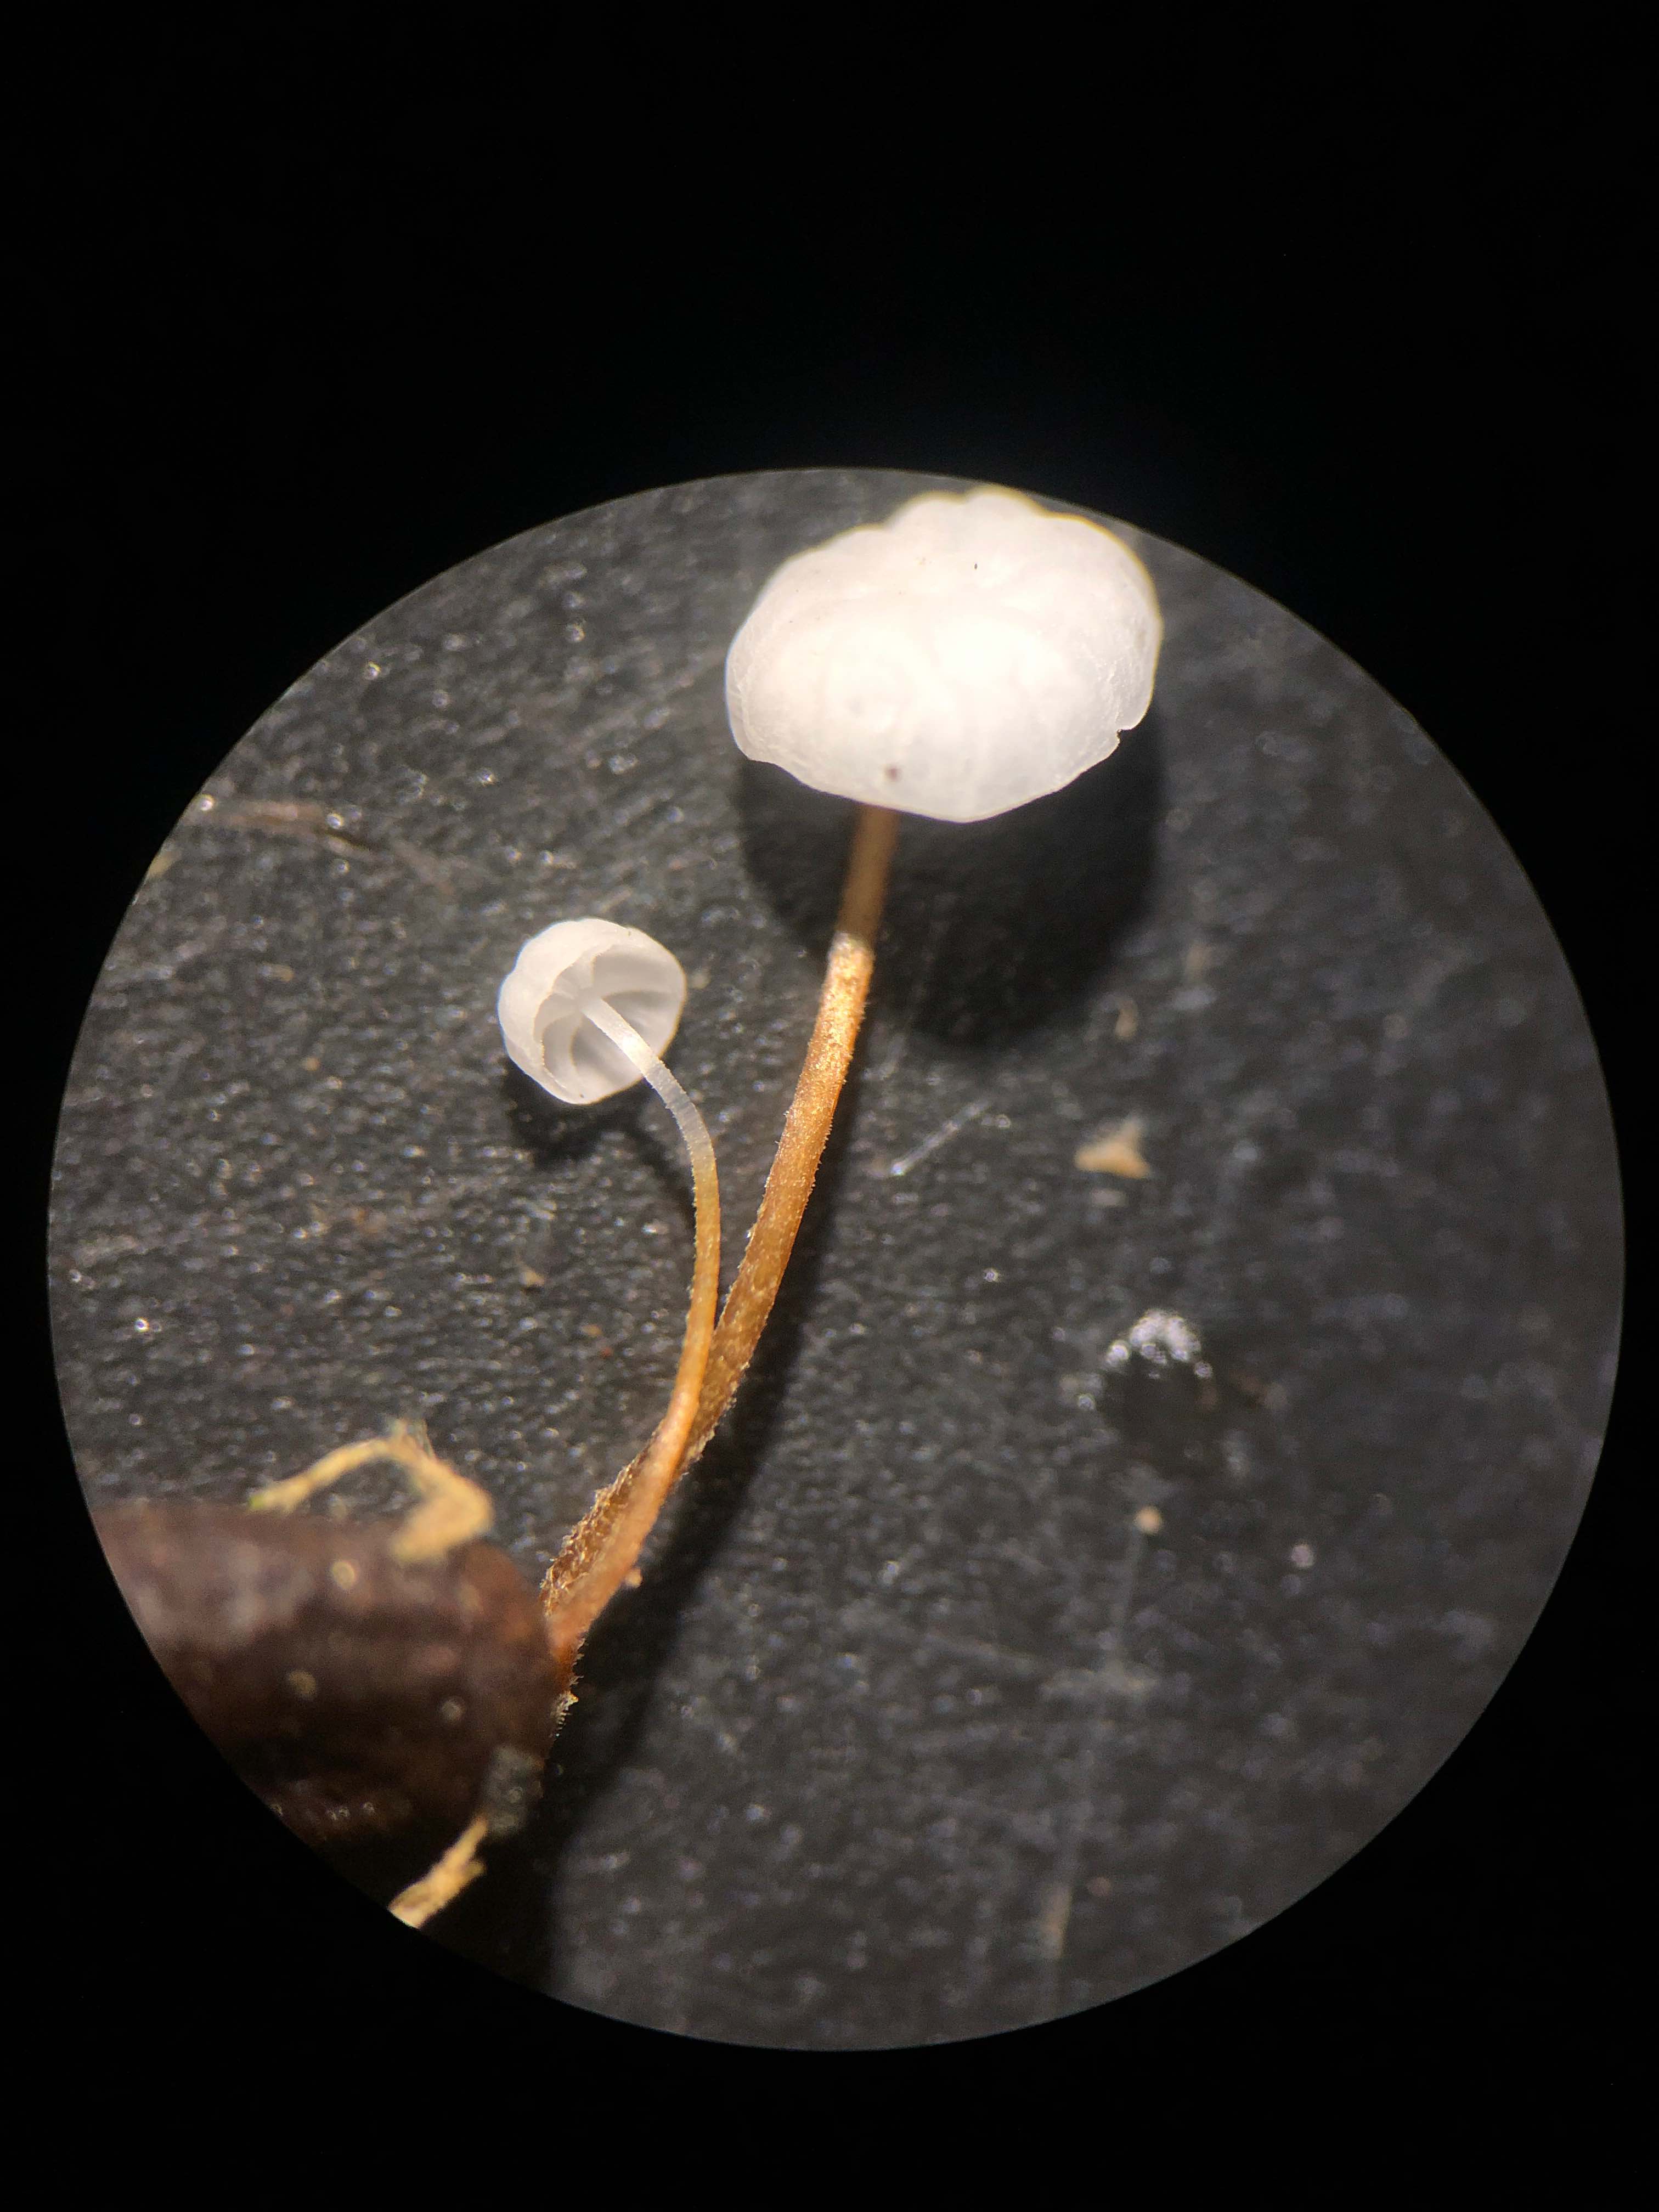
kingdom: Fungi
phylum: Basidiomycota
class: Agaricomycetes
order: Agaricales
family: Physalacriaceae
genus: Rhizomarasmius
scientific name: Rhizomarasmius setosus
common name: bøgeblads-bruskhat
